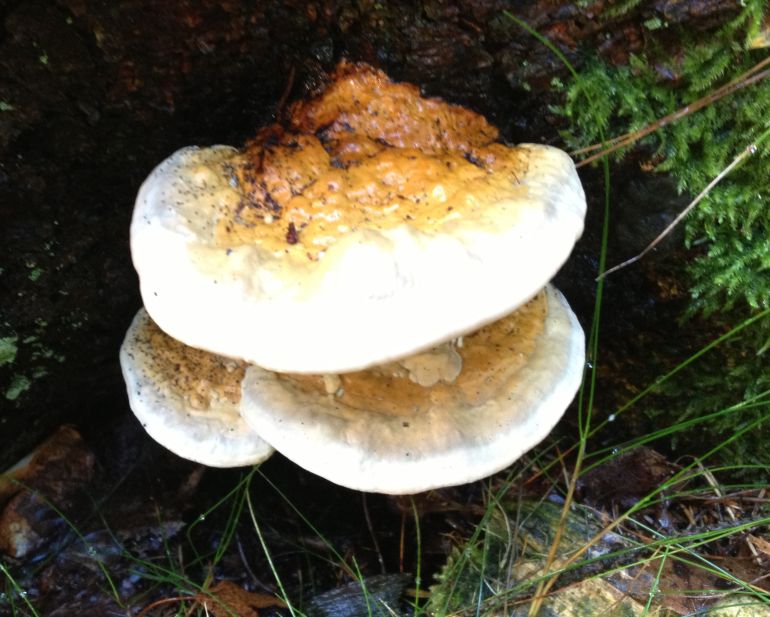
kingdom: Fungi
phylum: Basidiomycota
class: Agaricomycetes
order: Polyporales
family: Fomitopsidaceae
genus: Fomitopsis
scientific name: Fomitopsis pinicola
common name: randbæltet hovporesvamp
